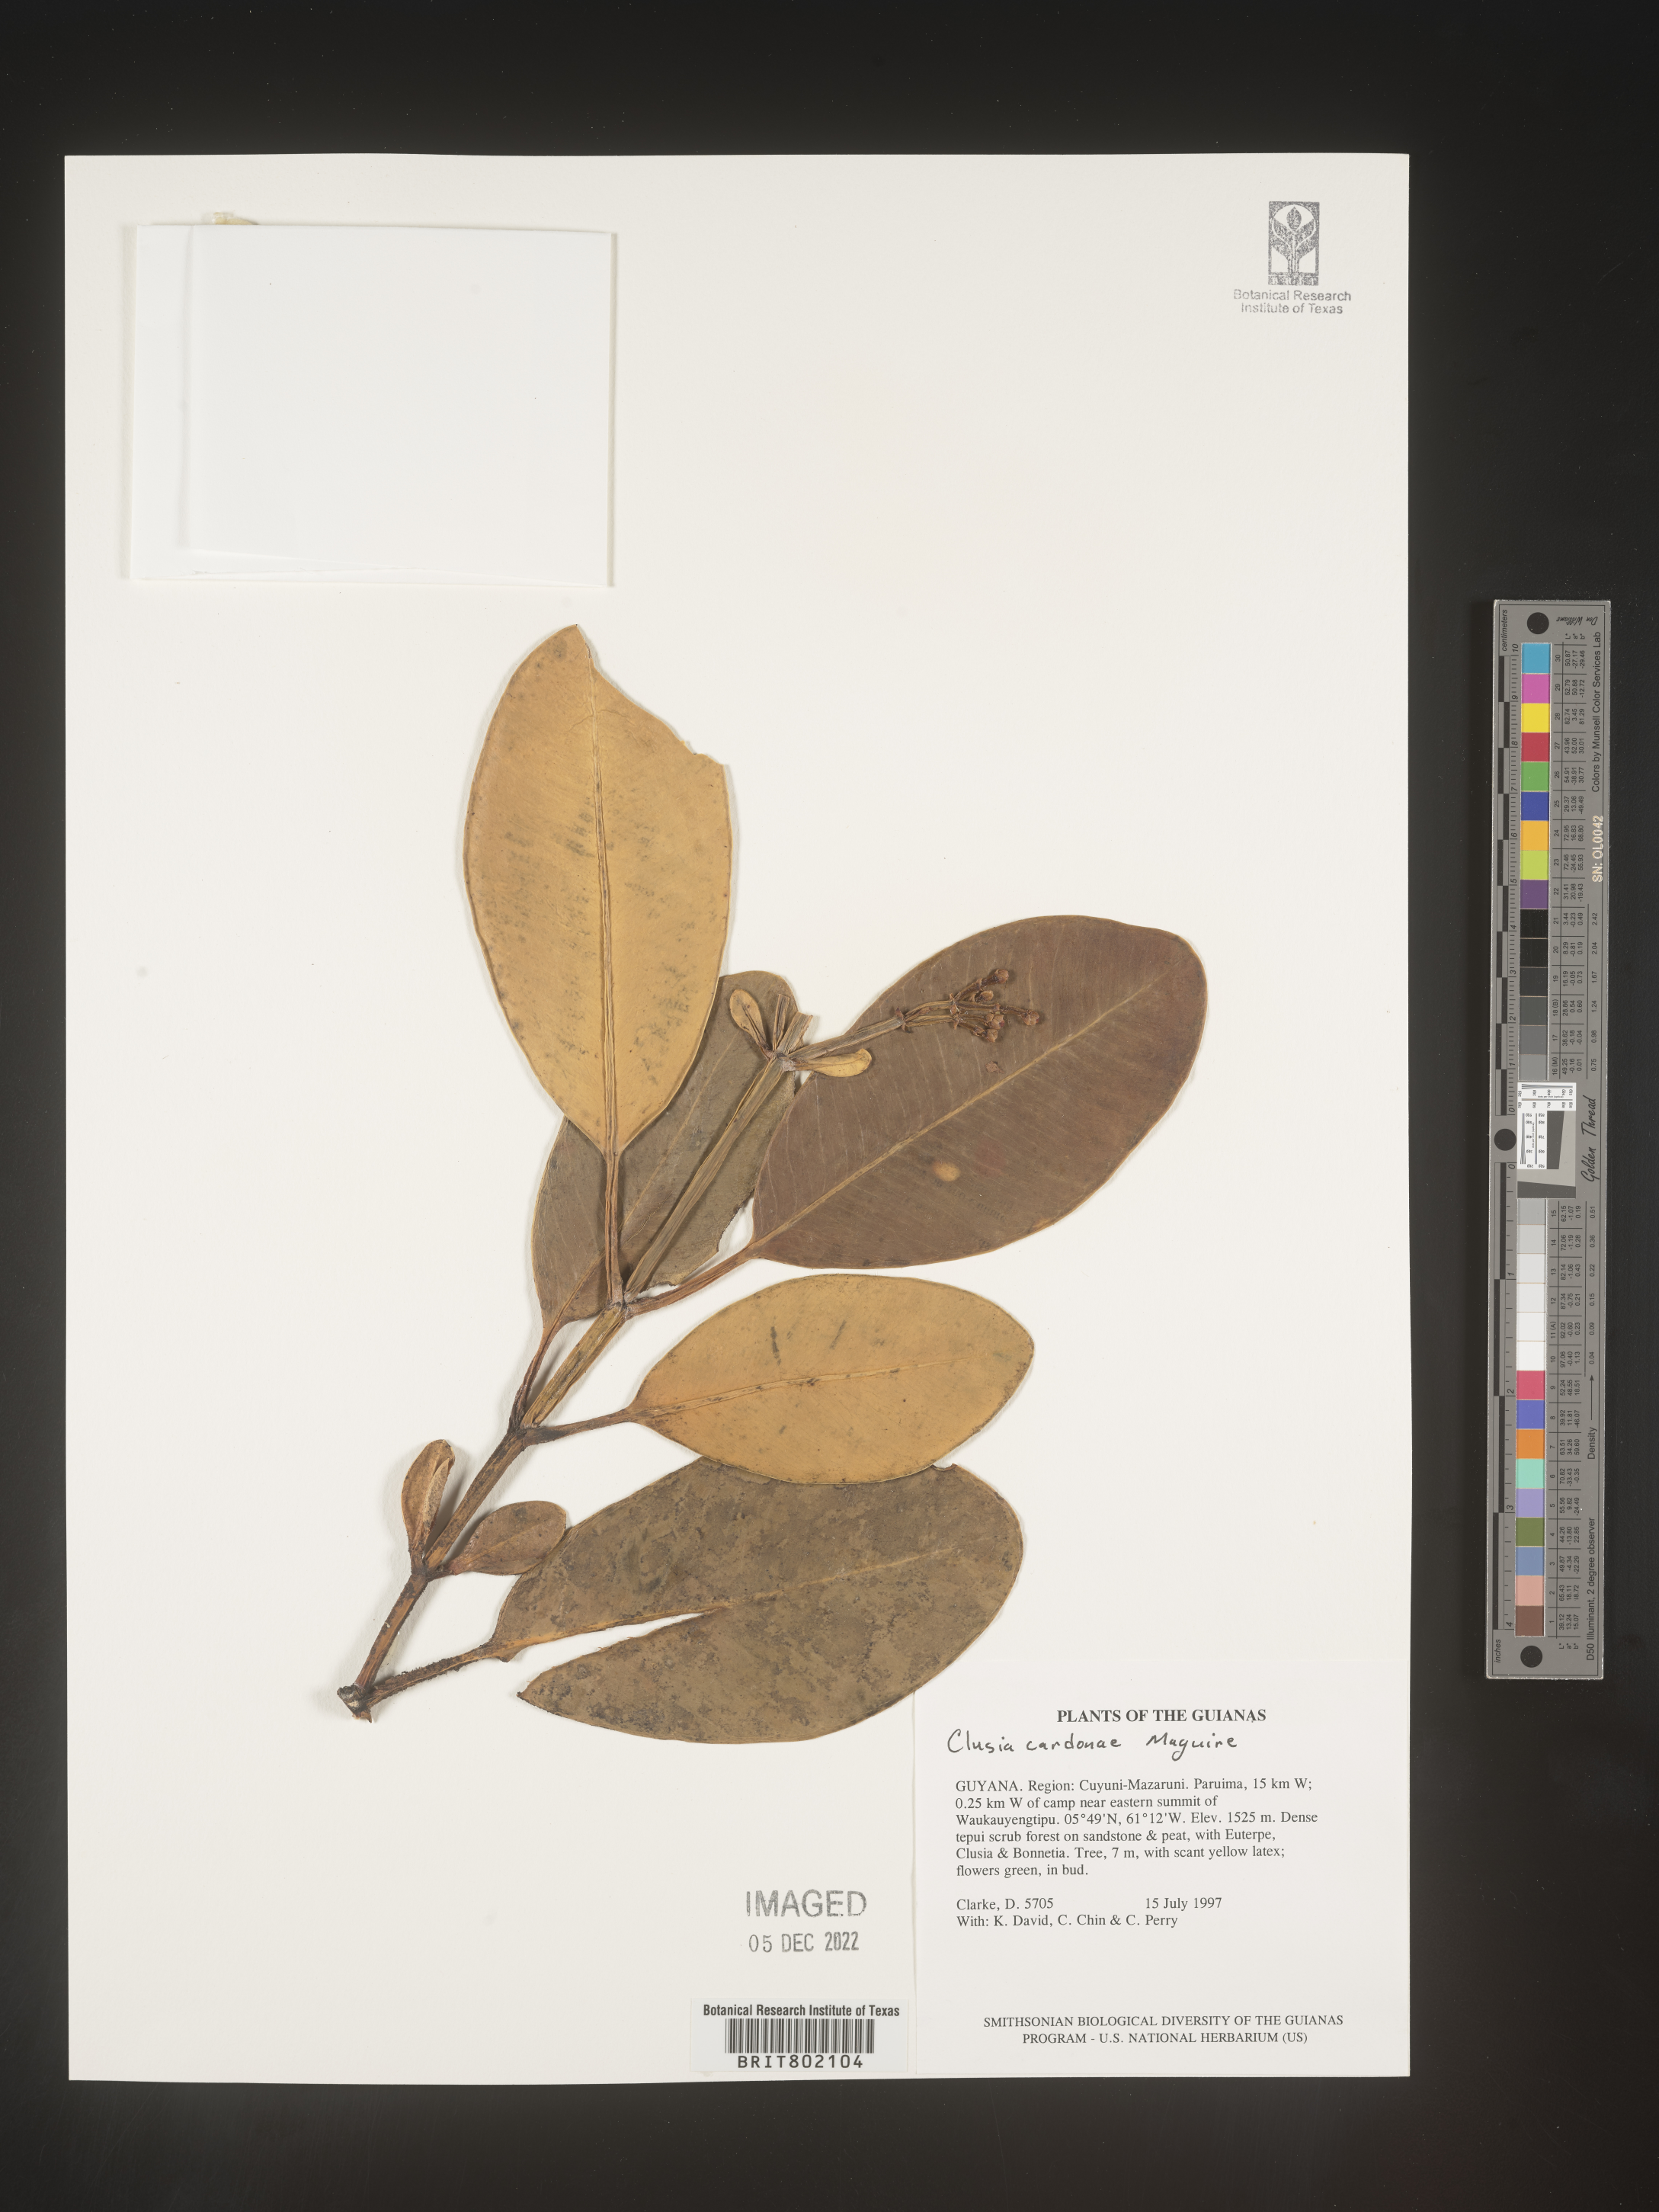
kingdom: Plantae
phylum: Tracheophyta
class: Magnoliopsida
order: Malpighiales
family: Clusiaceae
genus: Clusia
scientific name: Clusia
